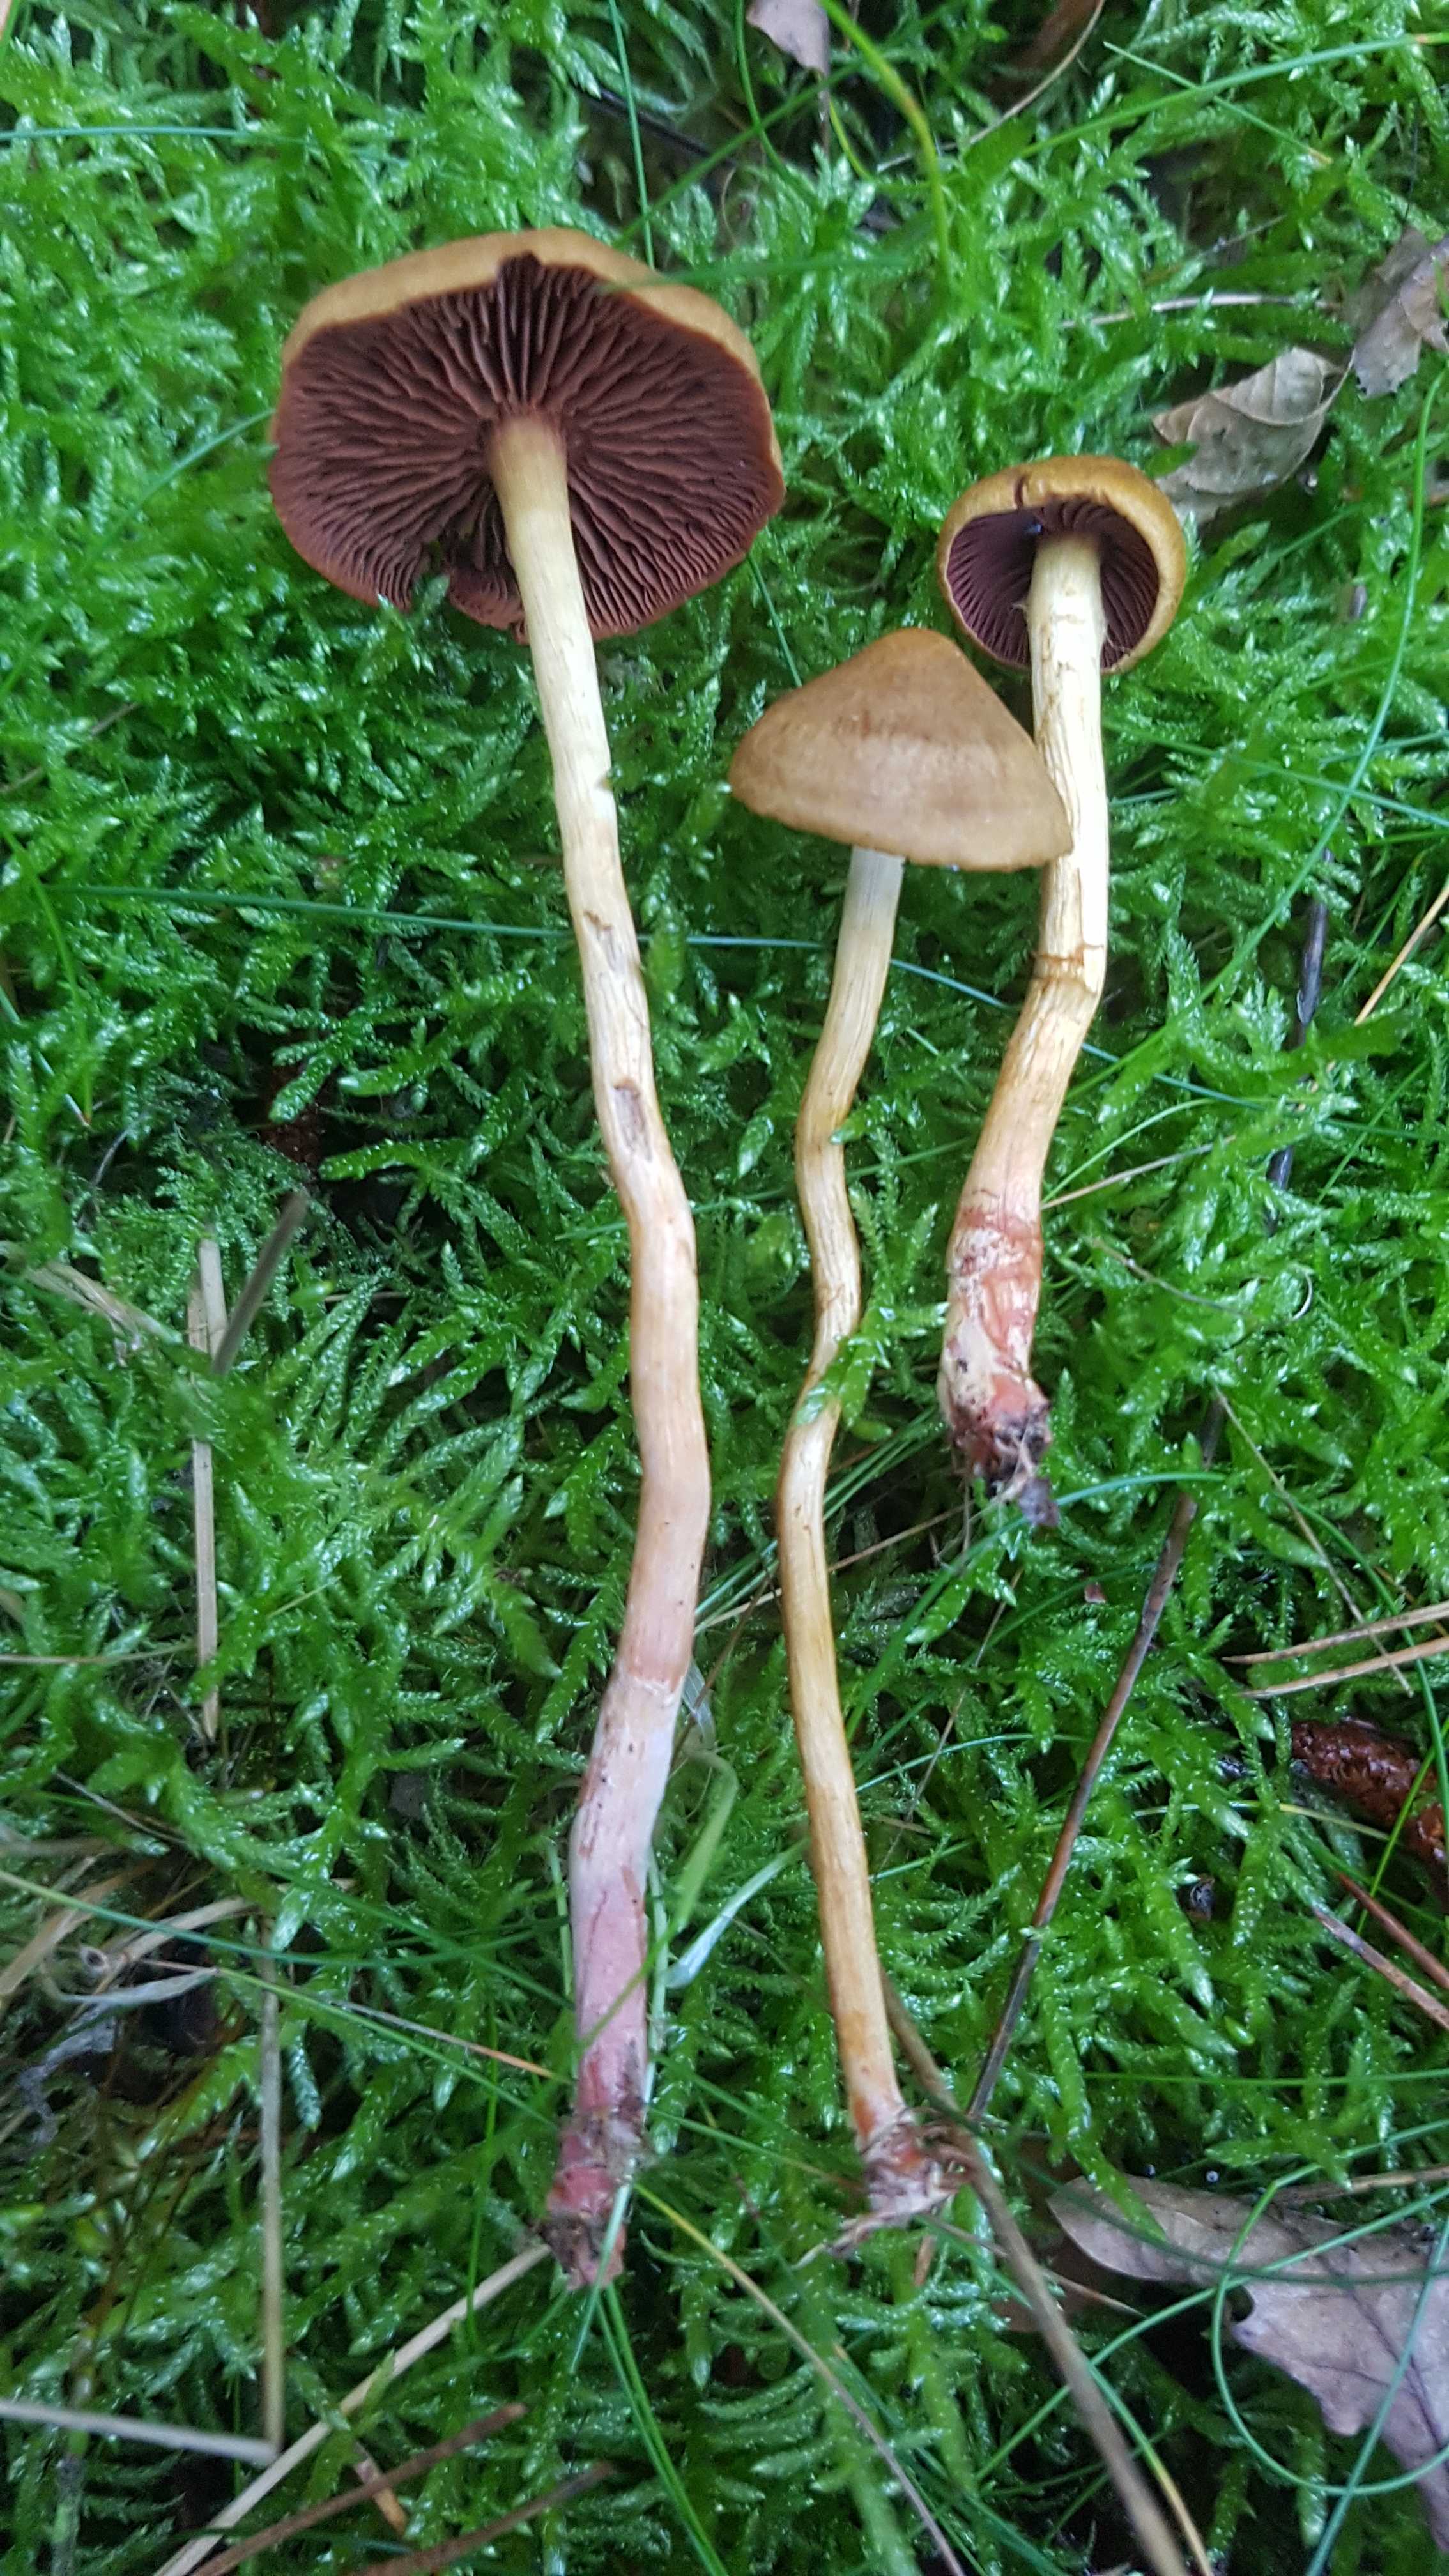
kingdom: Fungi
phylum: Basidiomycota
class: Agaricomycetes
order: Agaricales
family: Cortinariaceae
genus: Cortinarius
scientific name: Cortinarius
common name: cinnoberbladet slørhat
